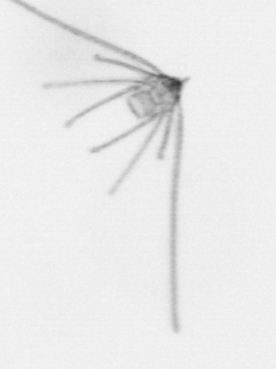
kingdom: Animalia
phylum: Echinodermata
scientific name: Echinodermata
